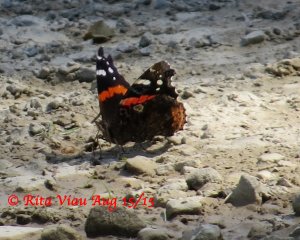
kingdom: Animalia
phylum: Arthropoda
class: Insecta
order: Lepidoptera
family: Nymphalidae
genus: Vanessa
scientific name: Vanessa atalanta
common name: Red Admiral
